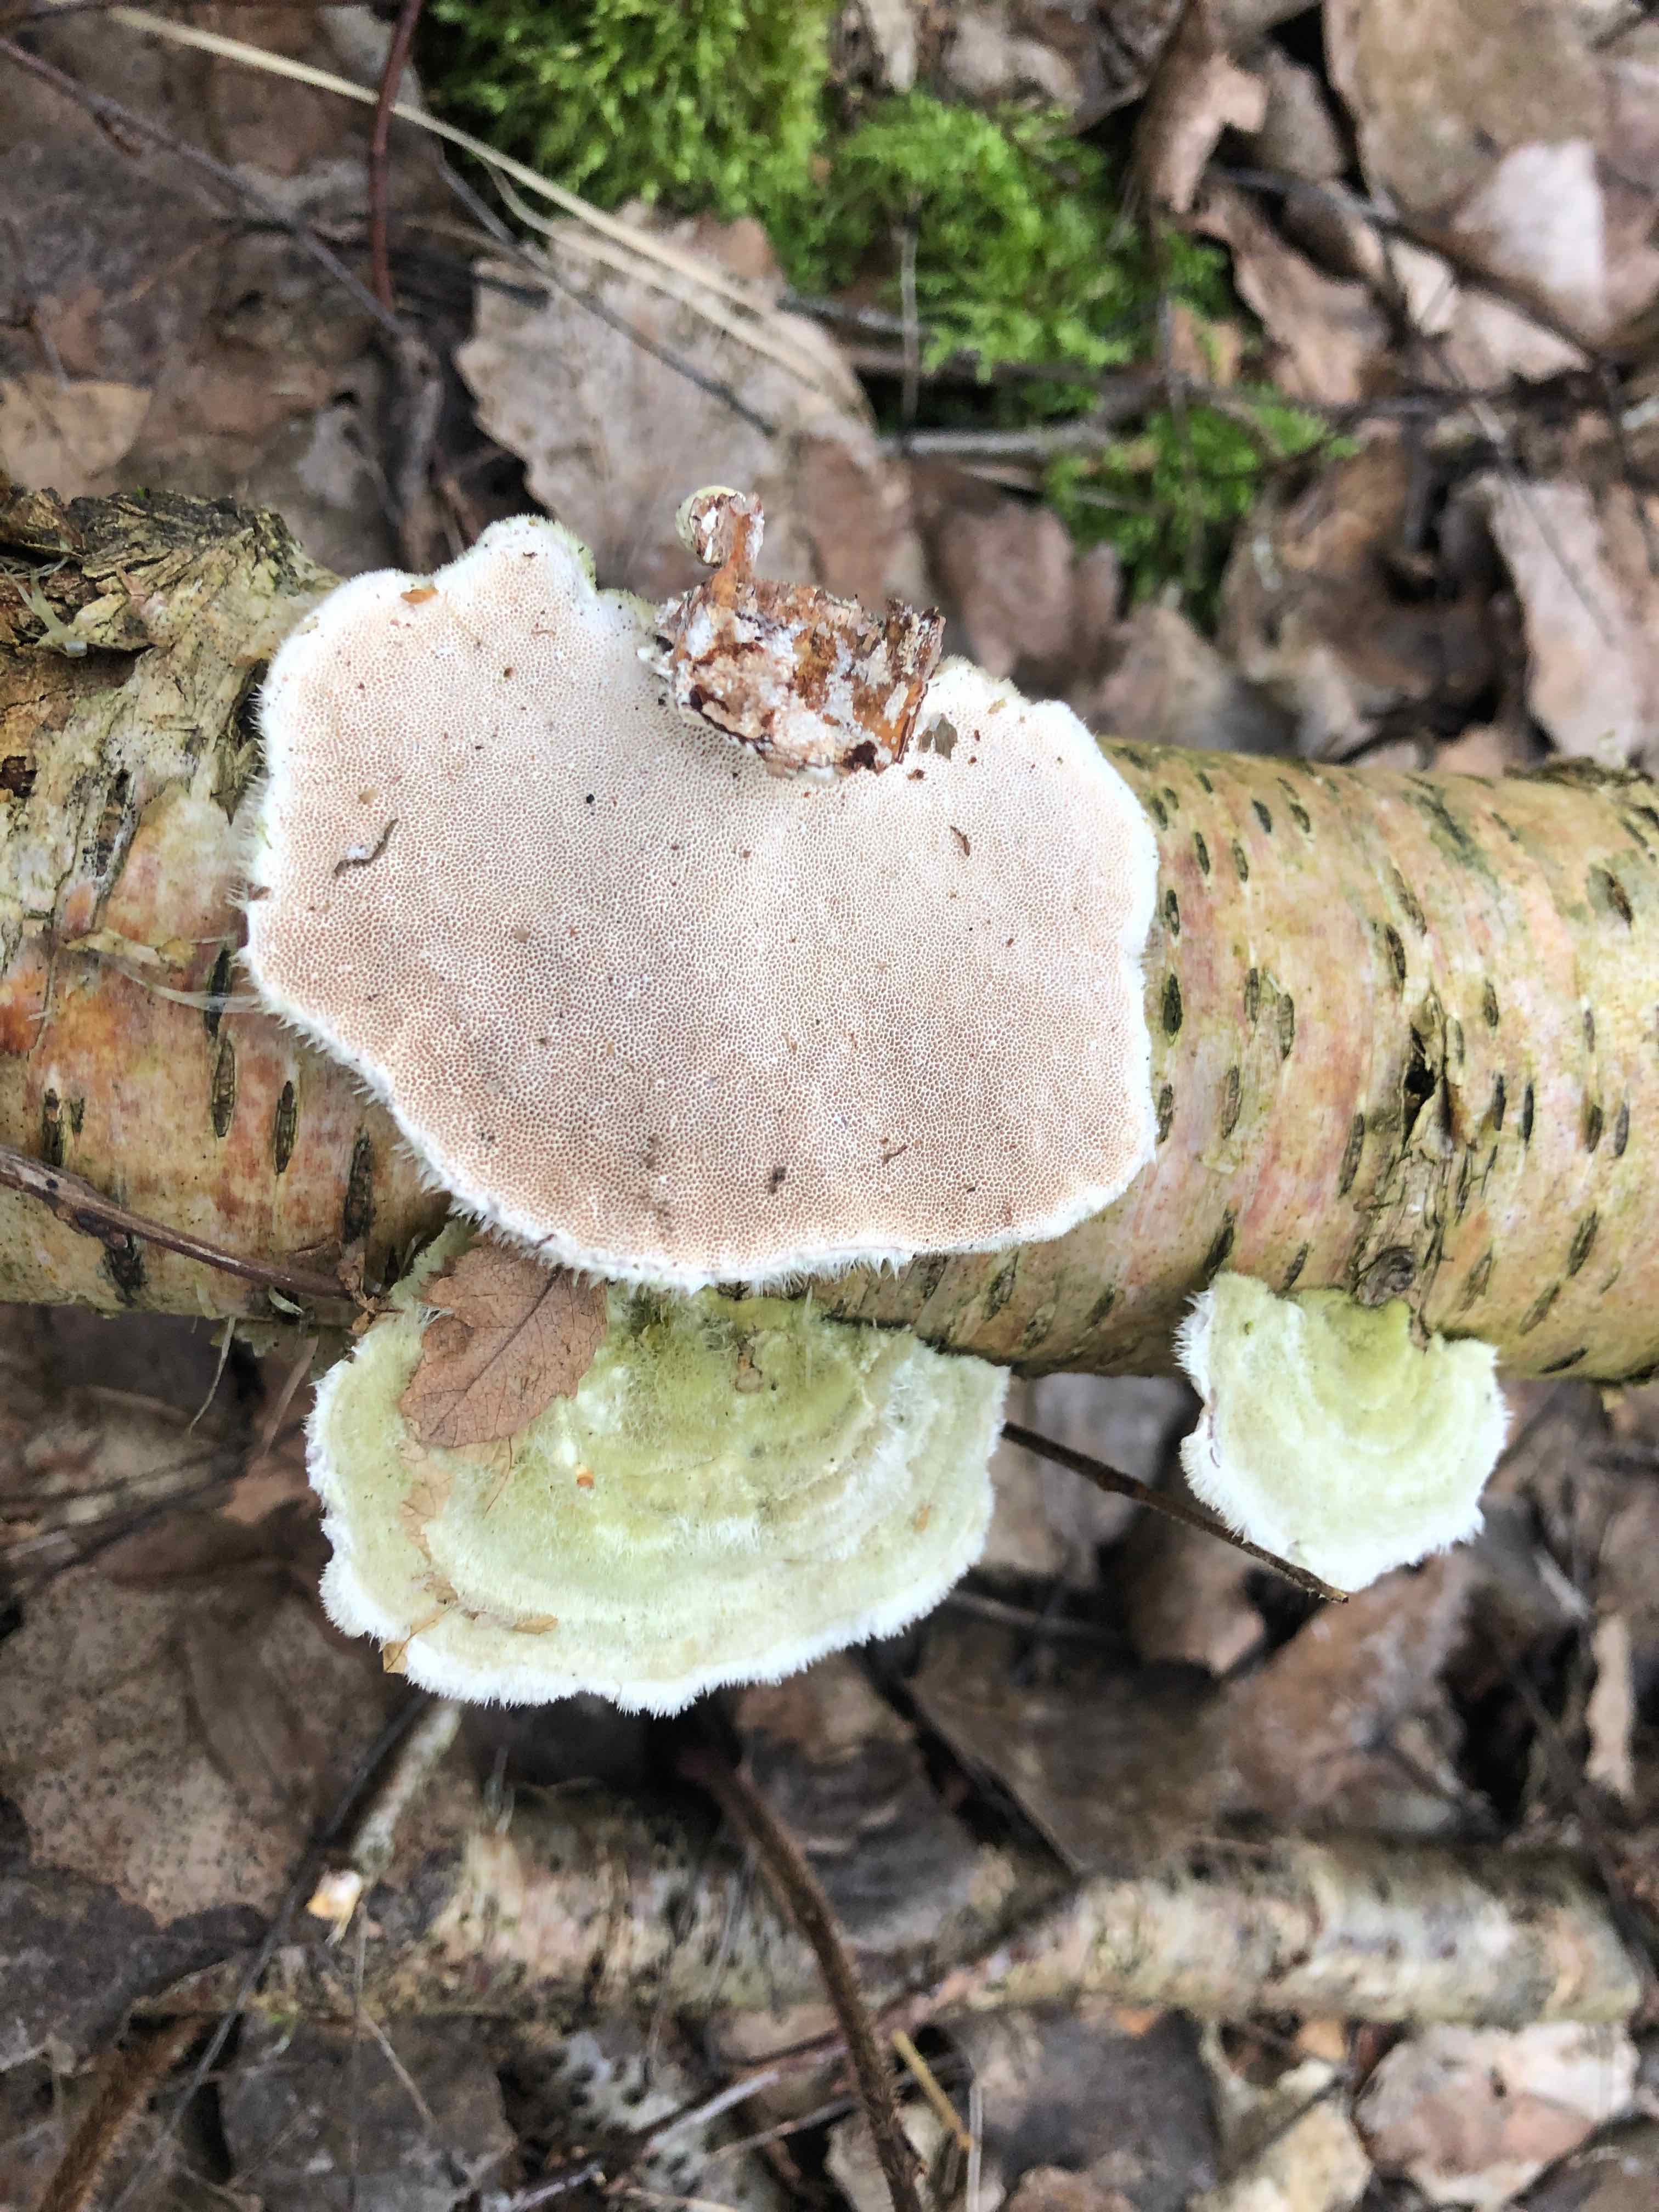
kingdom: Fungi
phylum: Basidiomycota
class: Agaricomycetes
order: Polyporales
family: Polyporaceae
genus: Trametes
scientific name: Trametes hirsuta
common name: håret læderporesvamp
